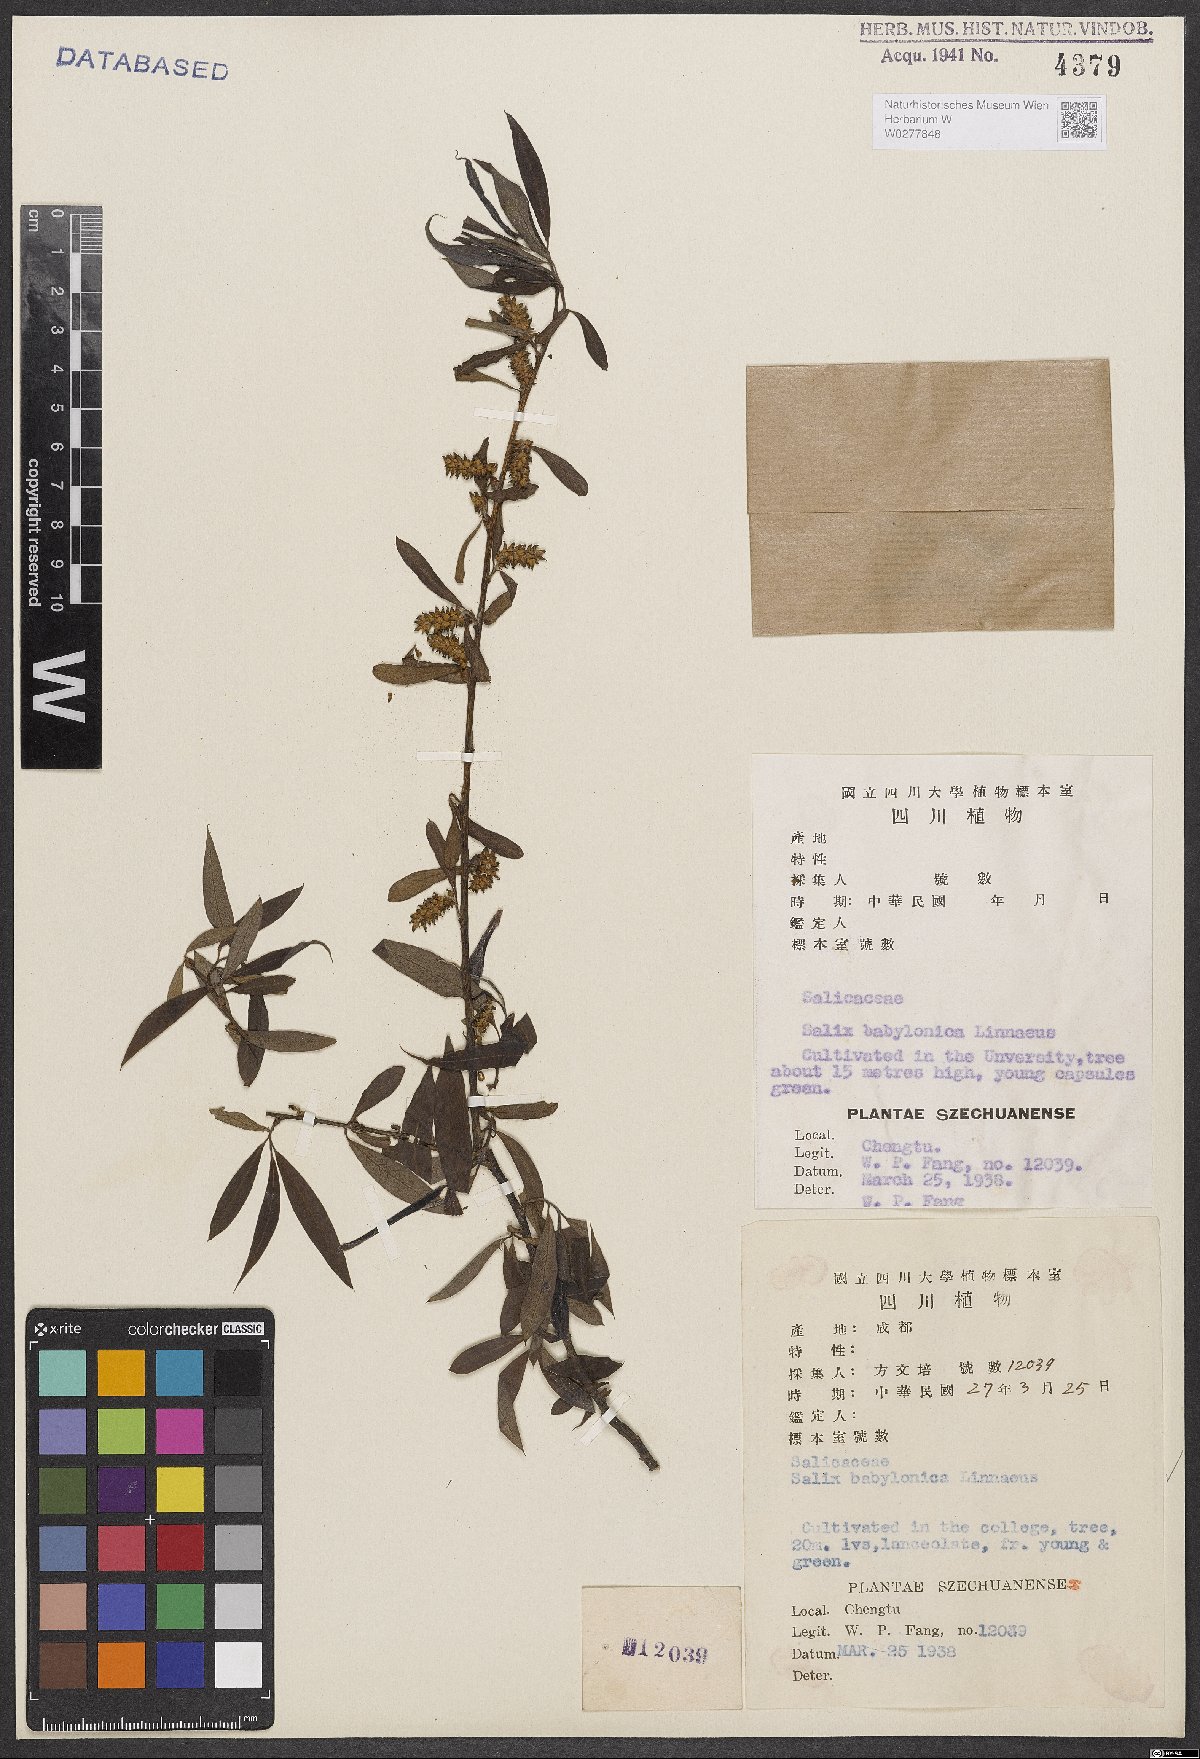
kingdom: Plantae
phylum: Tracheophyta
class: Magnoliopsida
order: Malpighiales
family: Salicaceae
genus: Salix
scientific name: Salix babylonica
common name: Weeping willow
